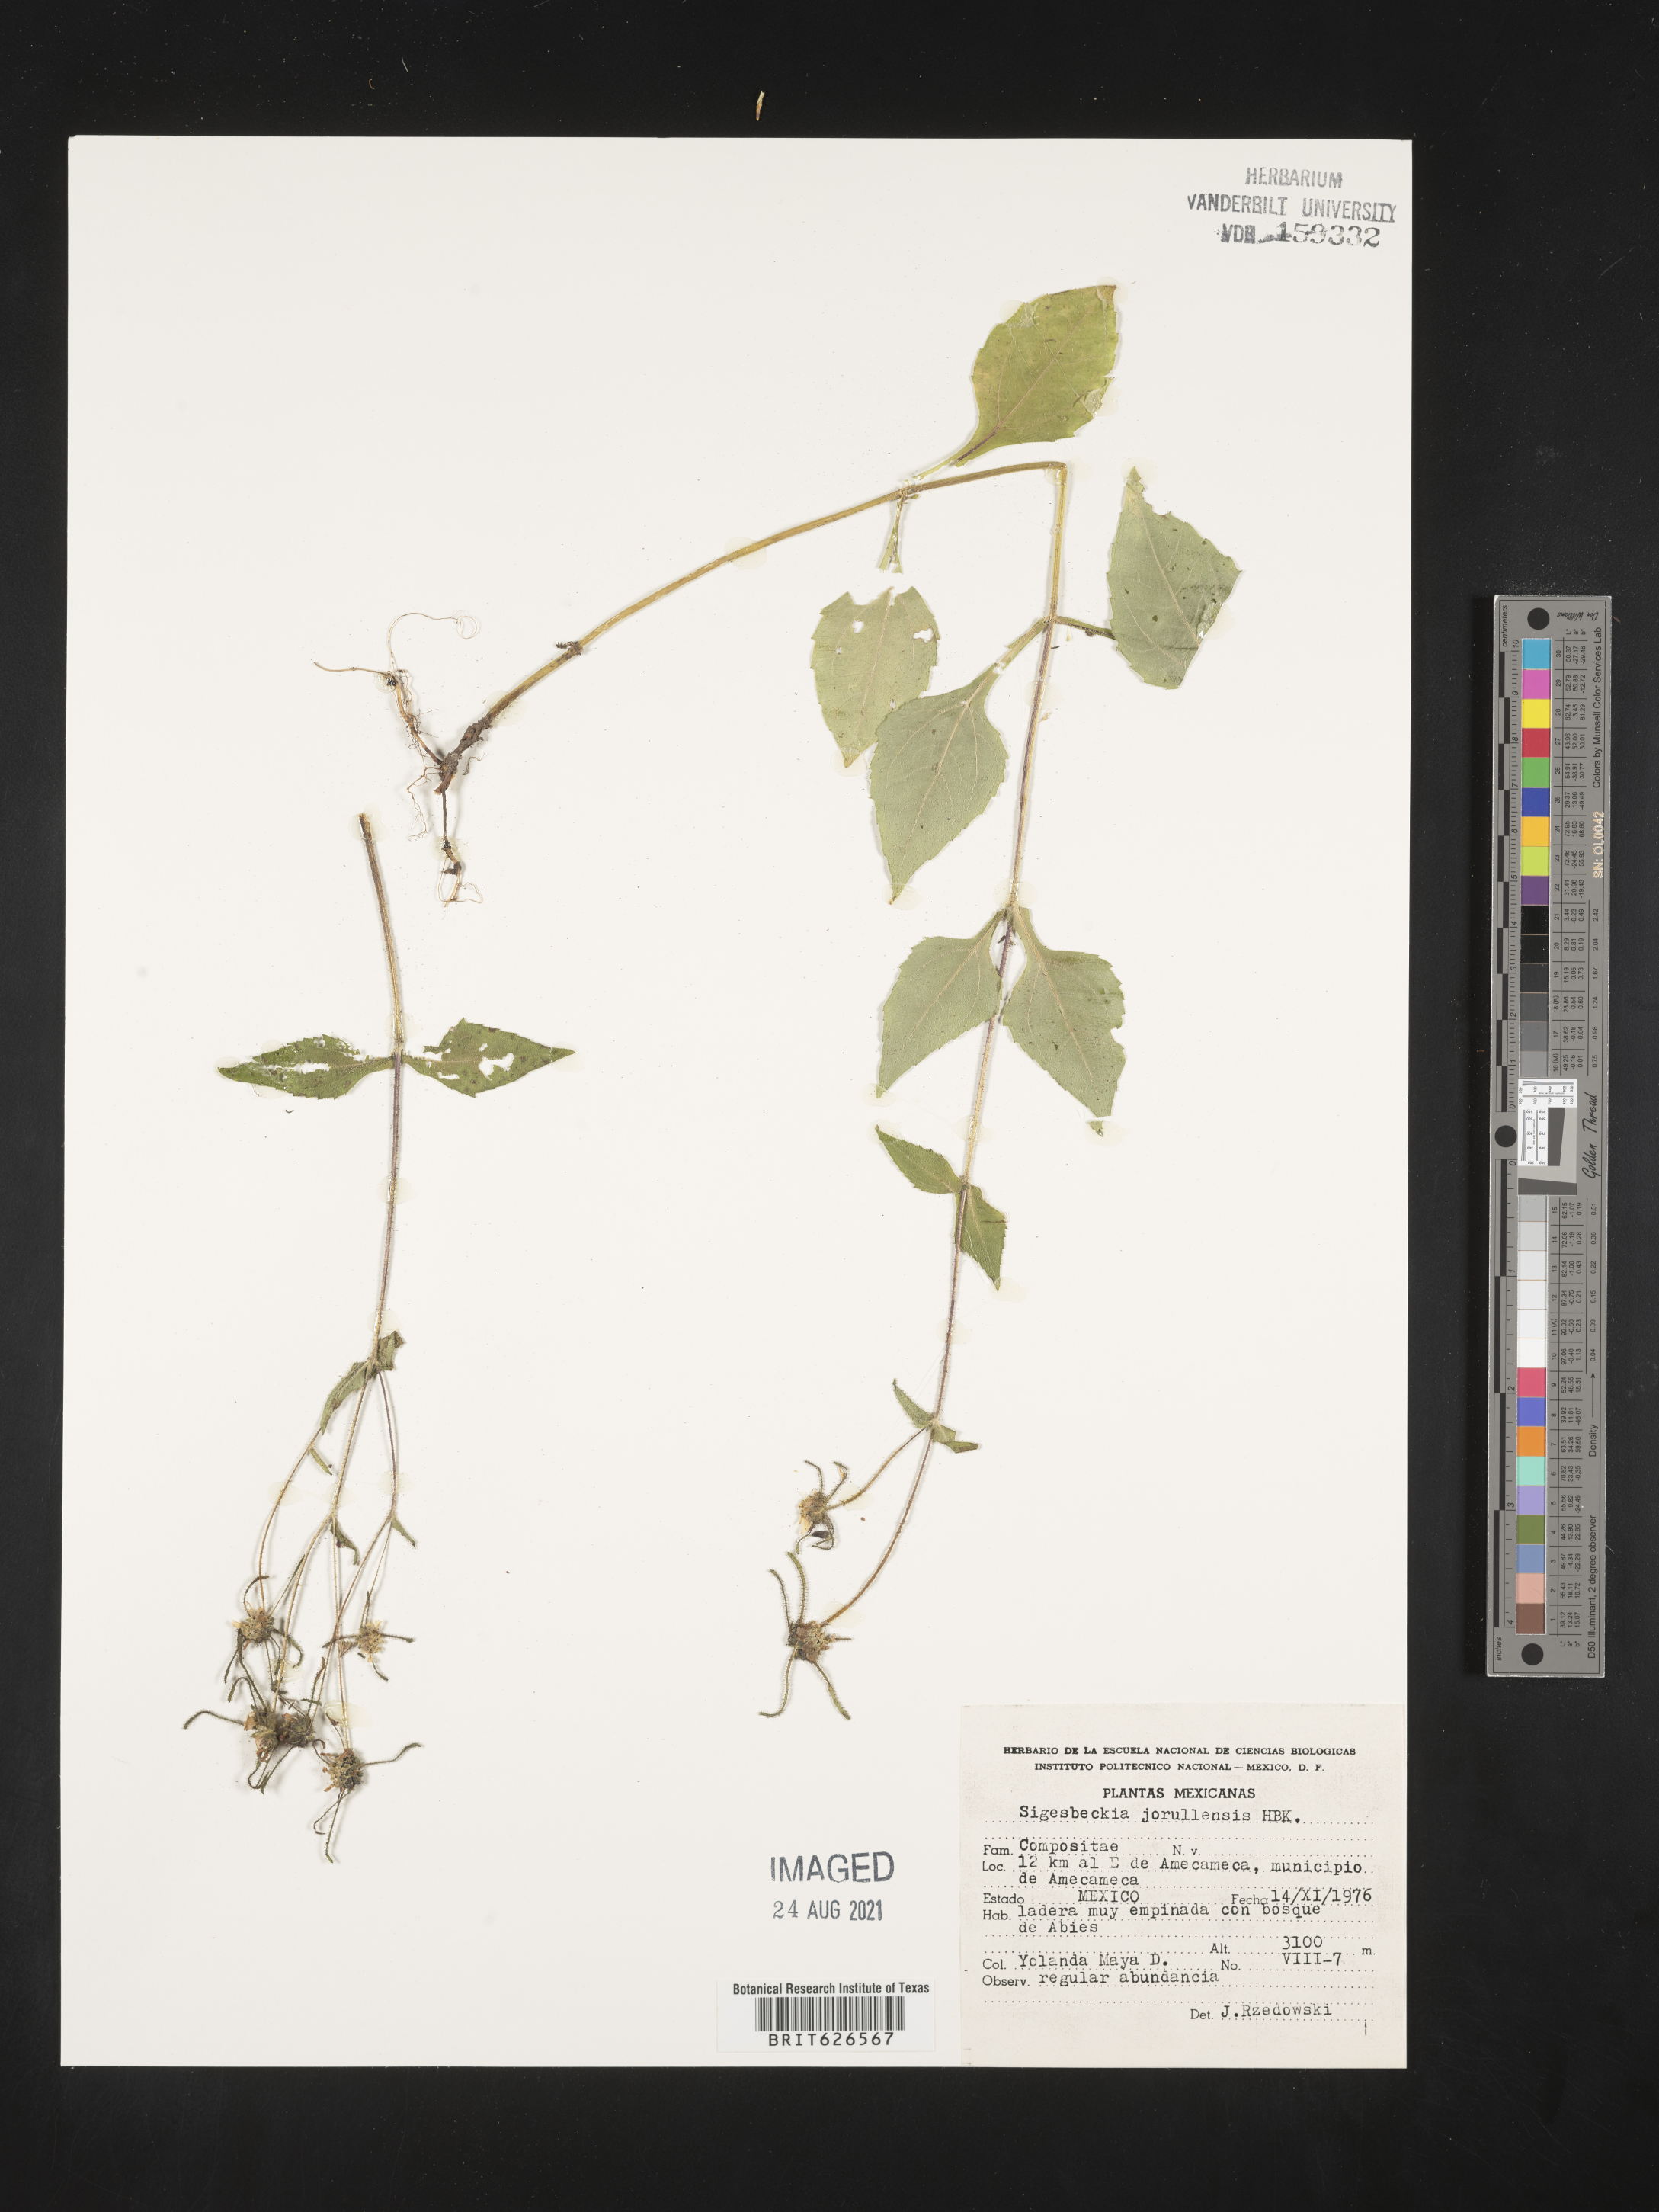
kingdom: Plantae
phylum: Tracheophyta
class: Magnoliopsida
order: Asterales
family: Asteraceae
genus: Sigesbeckia
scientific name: Sigesbeckia
